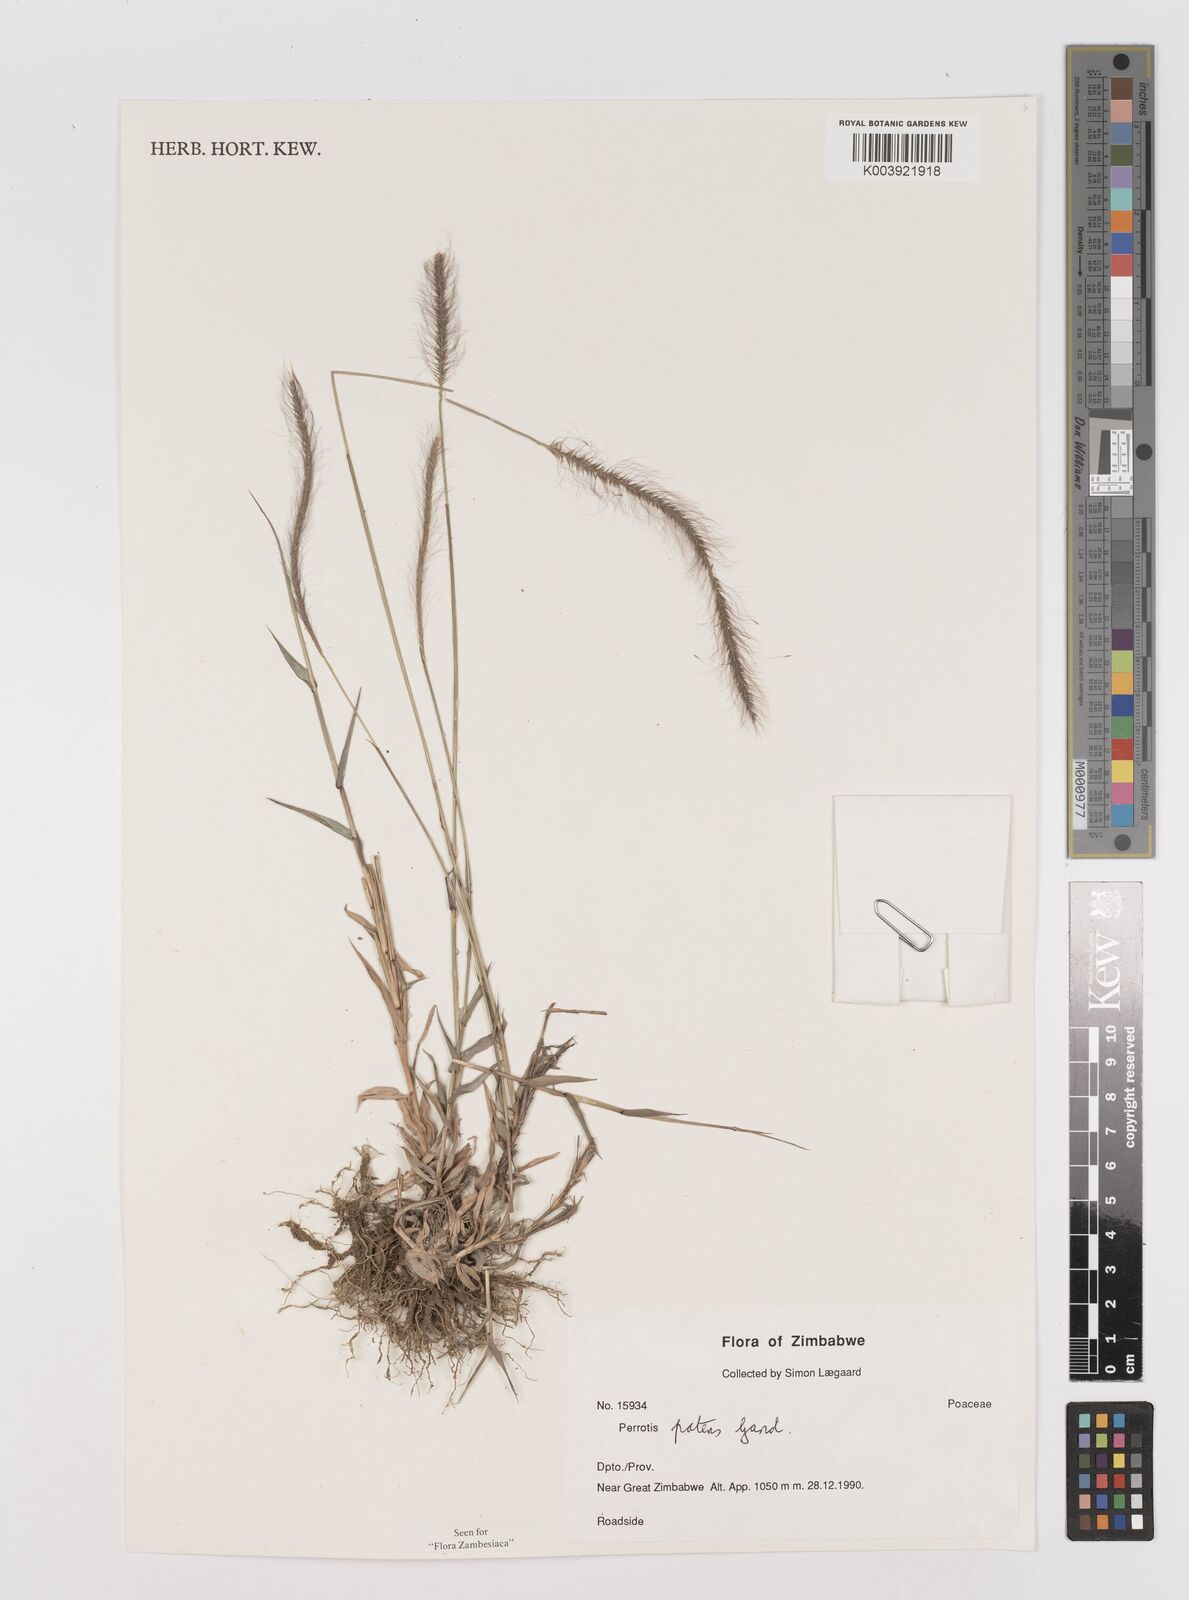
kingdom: Plantae
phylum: Tracheophyta
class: Liliopsida
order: Poales
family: Poaceae
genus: Perotis
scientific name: Perotis patens
